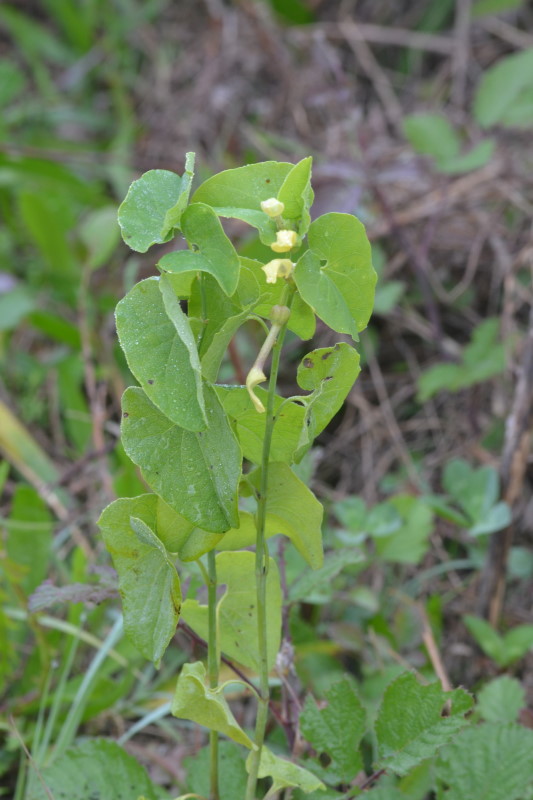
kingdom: Plantae
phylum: Tracheophyta
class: Magnoliopsida
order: Piperales
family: Aristolochiaceae
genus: Aristolochia
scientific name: Aristolochia clematitis
